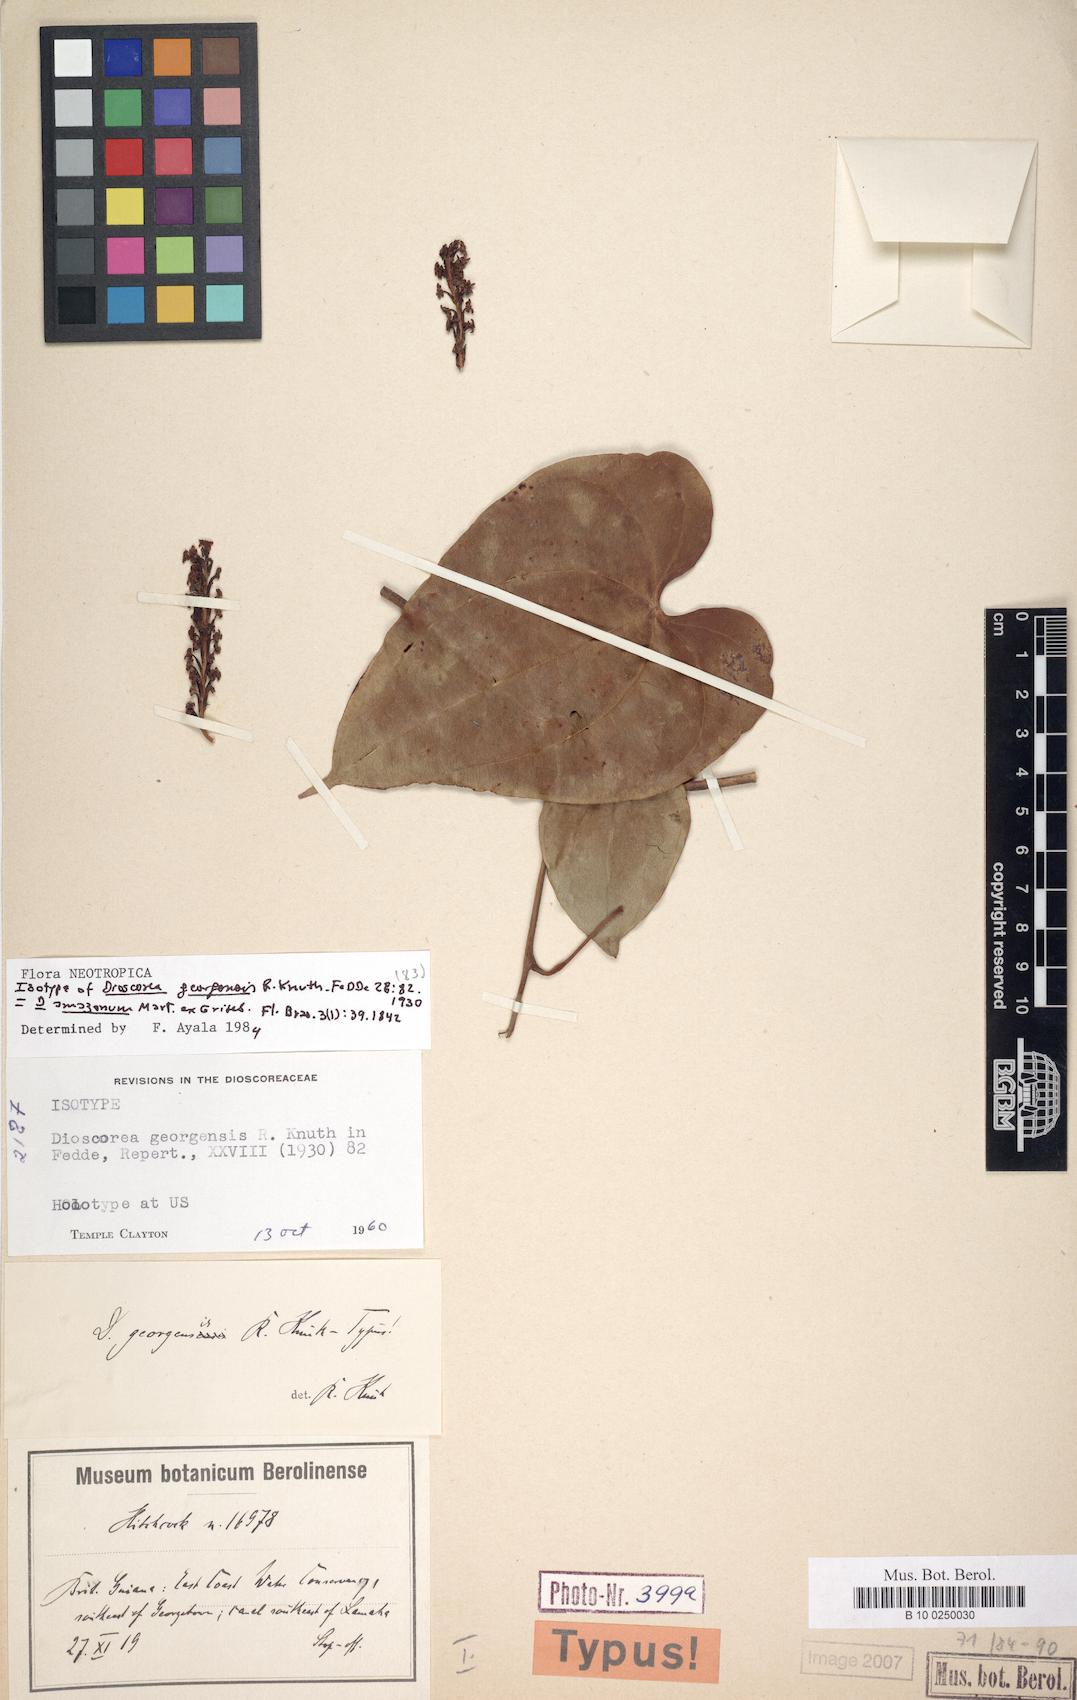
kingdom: Plantae
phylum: Tracheophyta
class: Liliopsida
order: Dioscoreales
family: Dioscoreaceae
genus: Dioscorea
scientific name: Dioscorea amazonum
